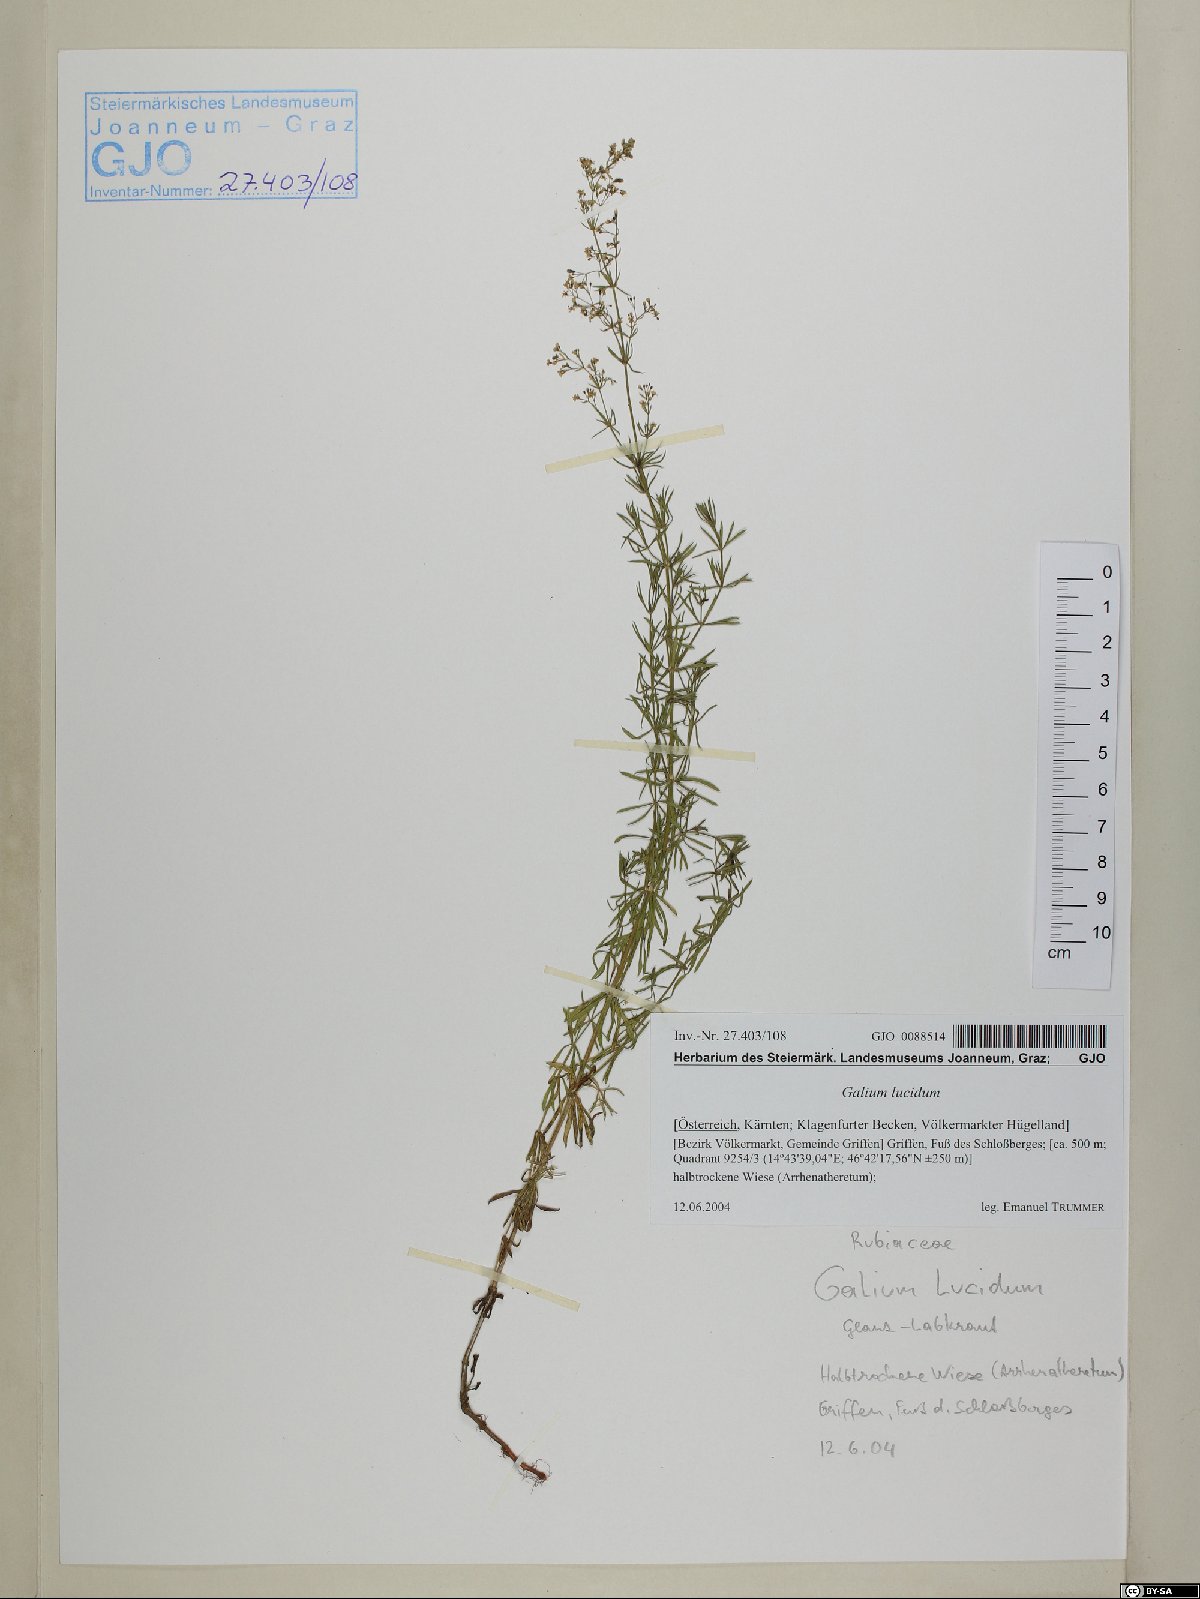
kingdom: Plantae
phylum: Tracheophyta
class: Magnoliopsida
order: Gentianales
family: Rubiaceae
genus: Galium
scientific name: Galium lucidum
